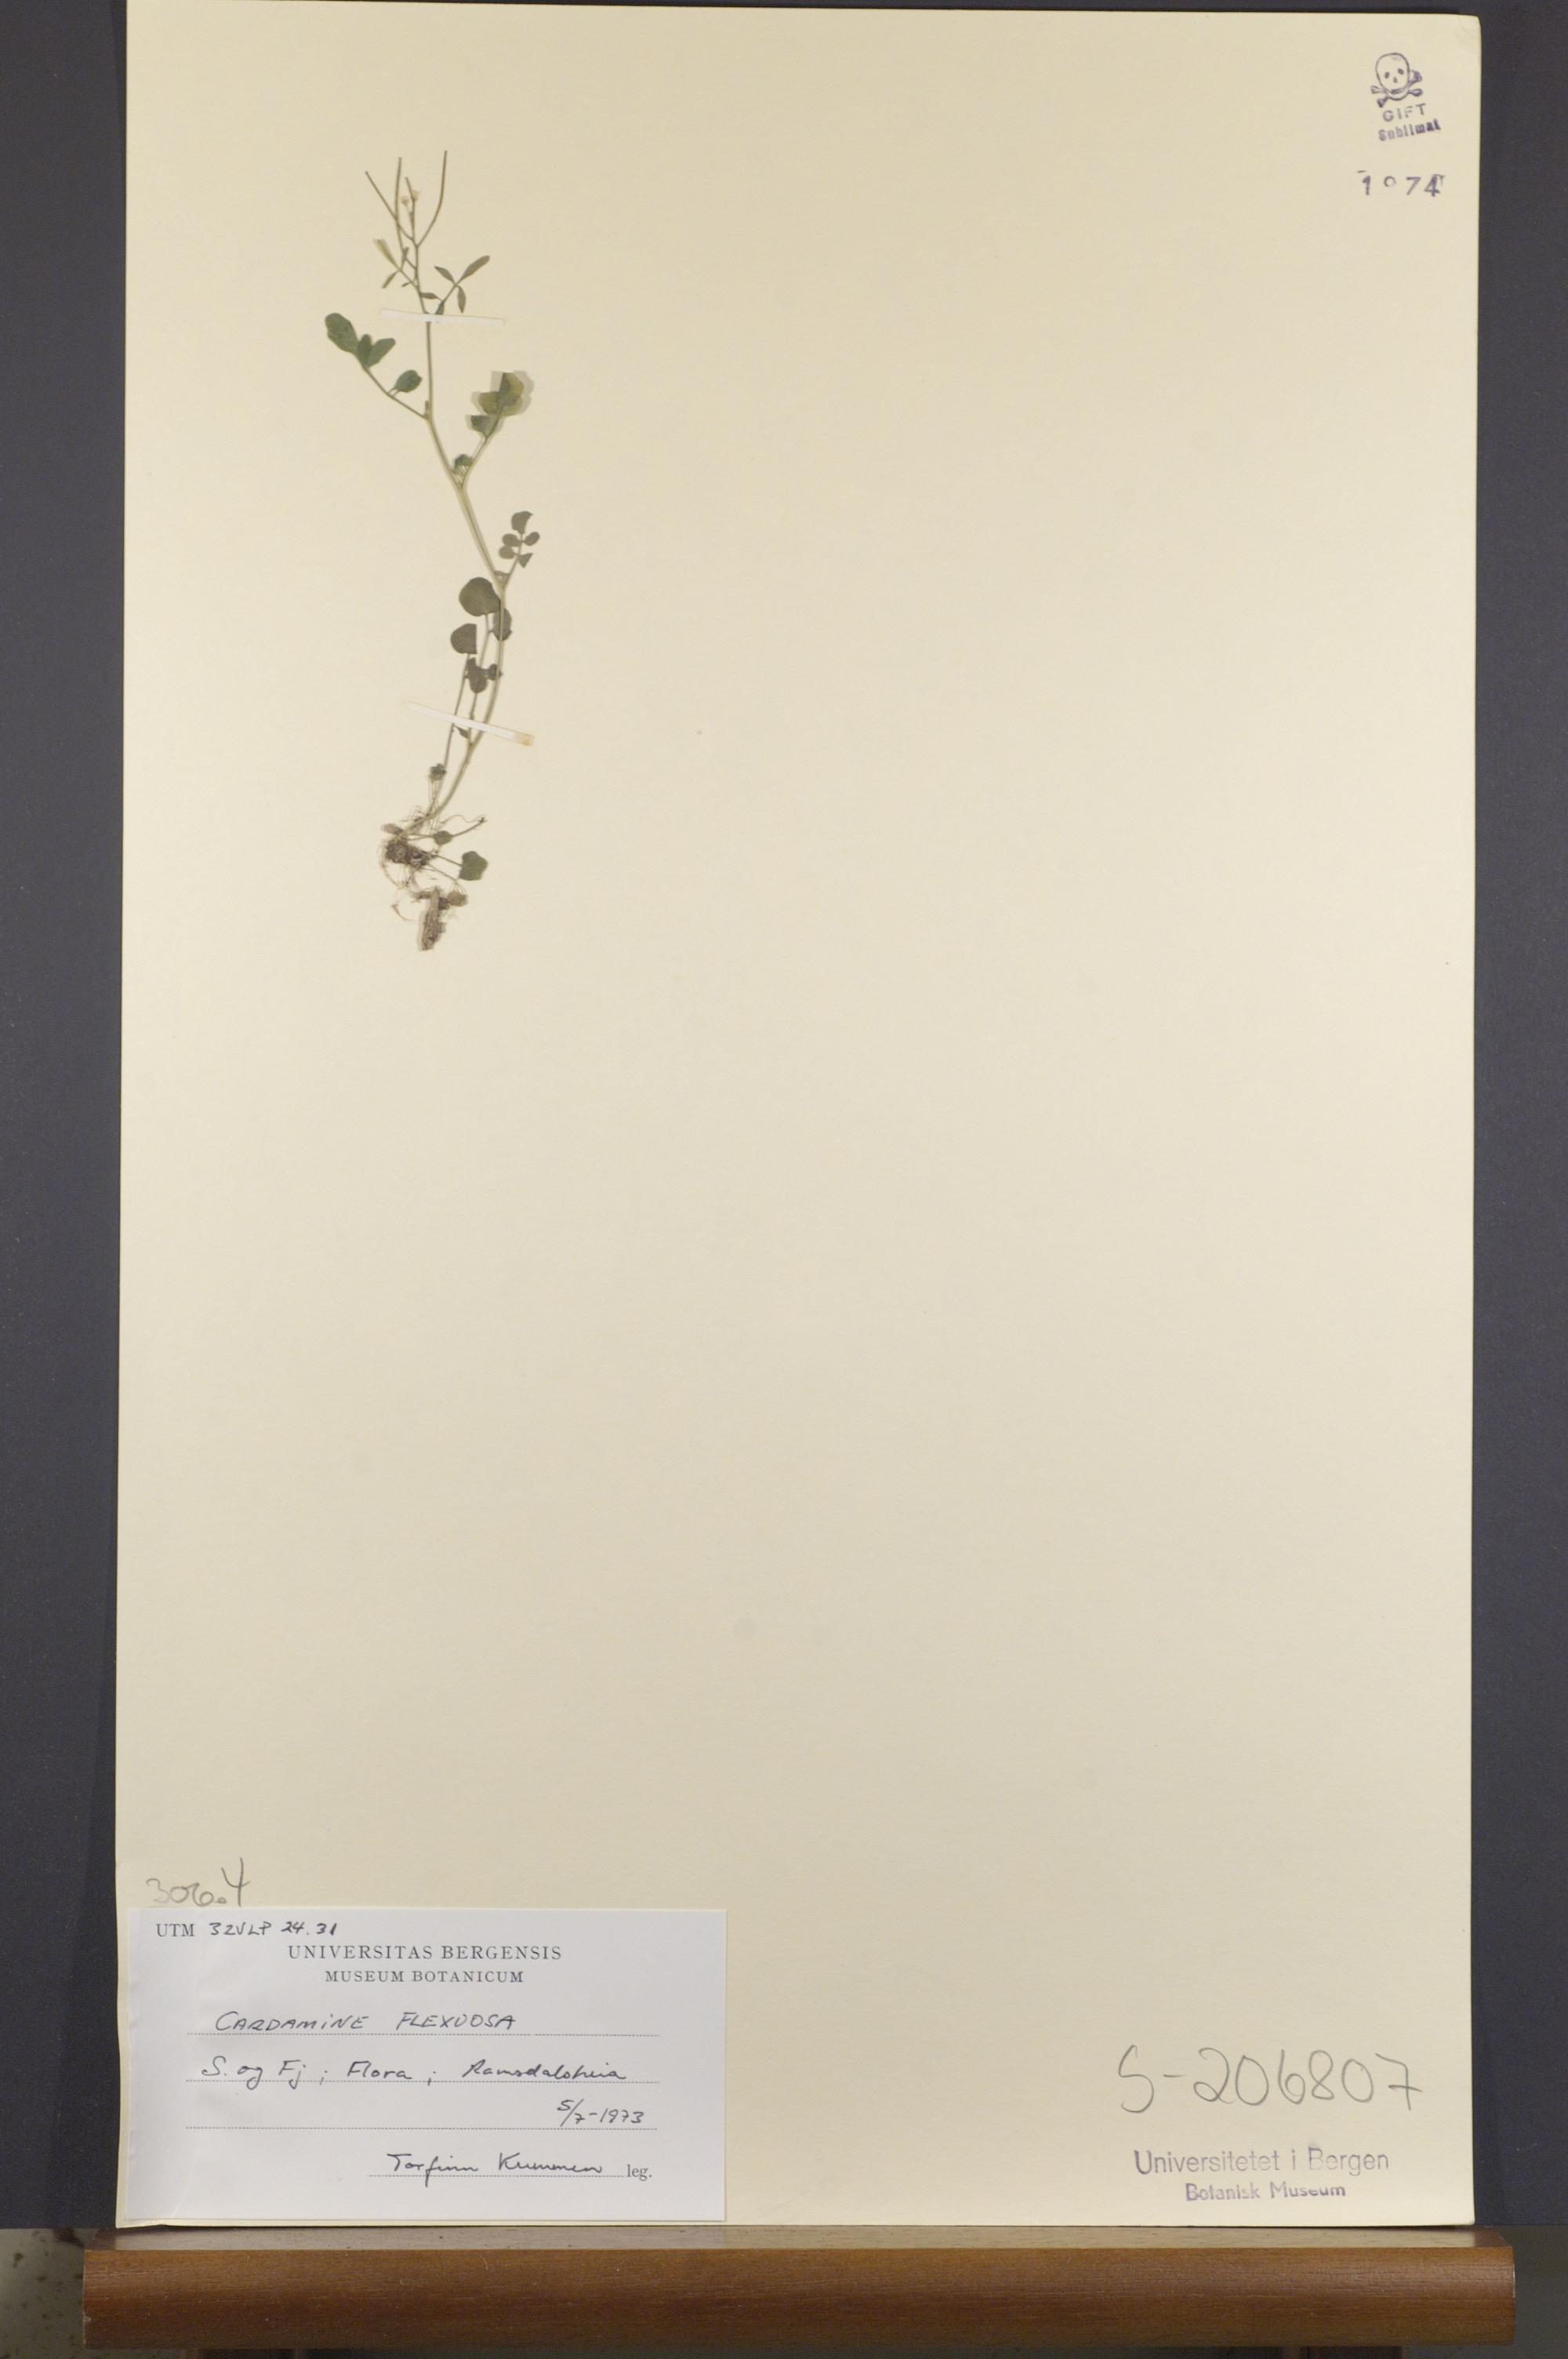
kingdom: Plantae
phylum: Tracheophyta
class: Magnoliopsida
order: Brassicales
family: Brassicaceae
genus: Cardamine
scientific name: Cardamine flexuosa
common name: Woodland bittercress
